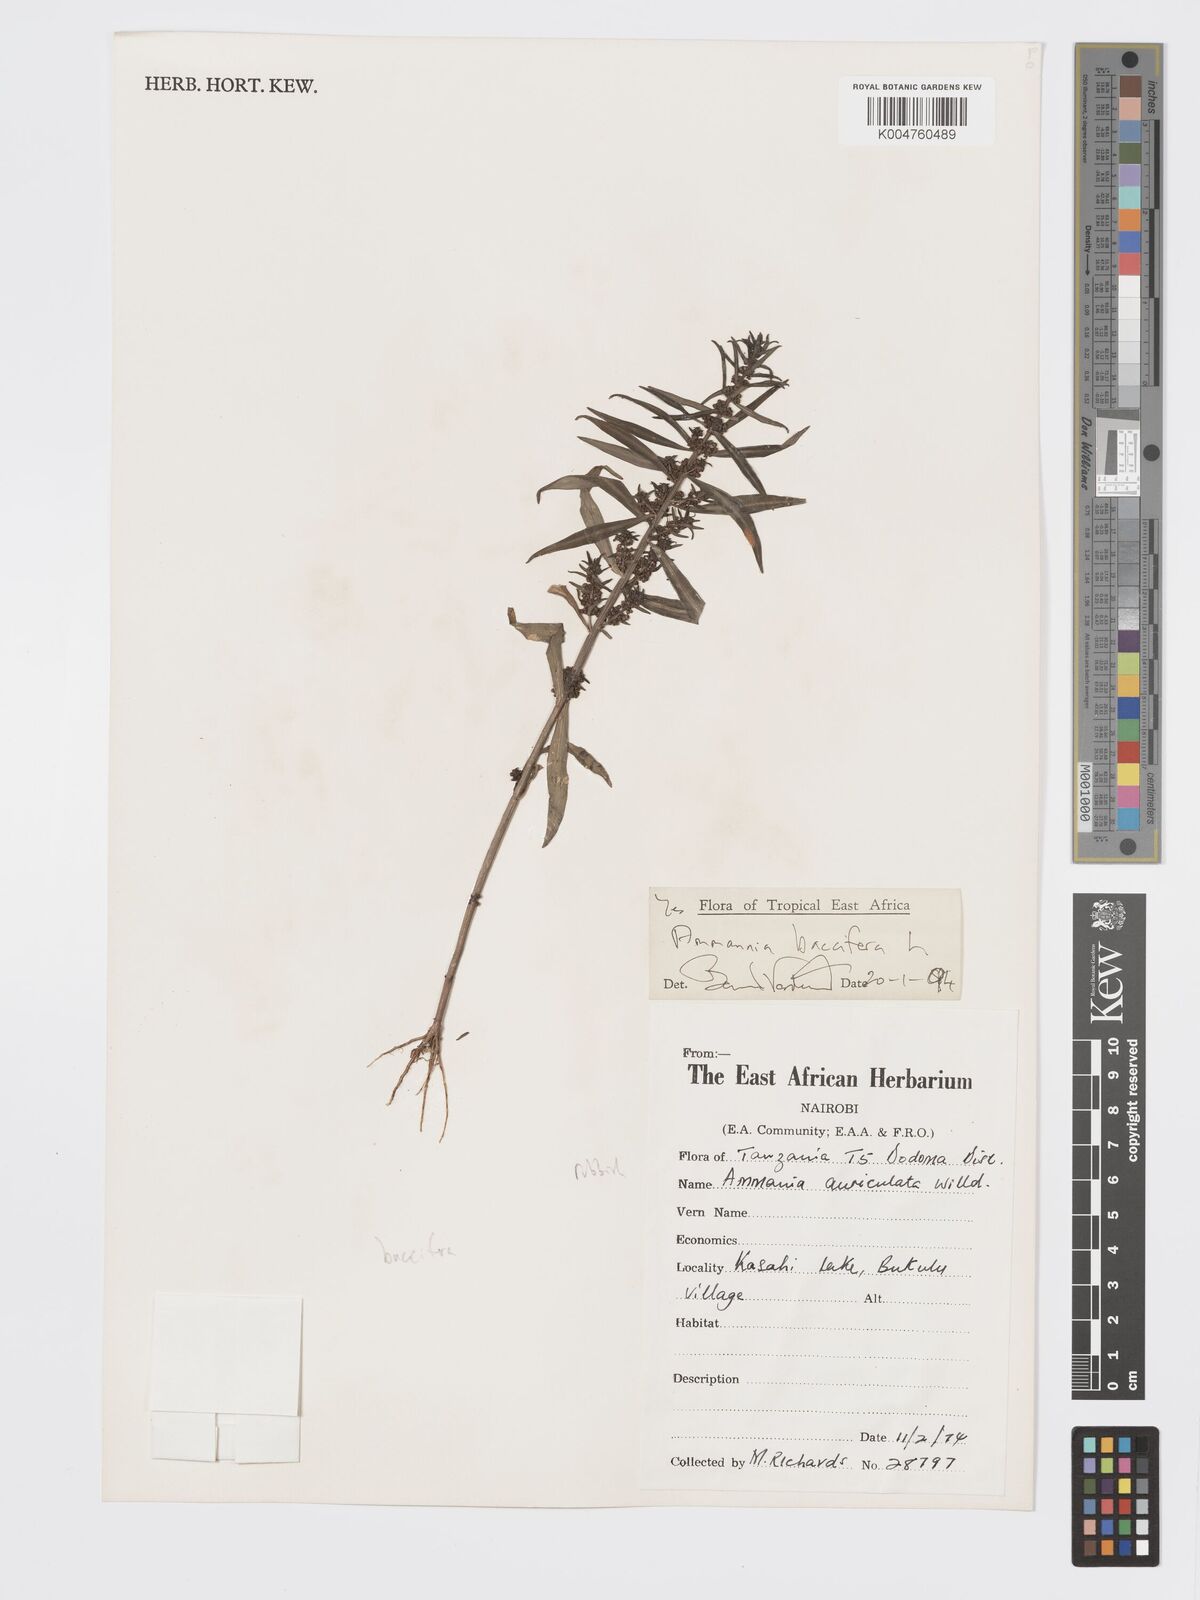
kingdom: Plantae
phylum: Tracheophyta
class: Magnoliopsida
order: Myrtales
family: Lythraceae
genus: Ammannia
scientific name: Ammannia
